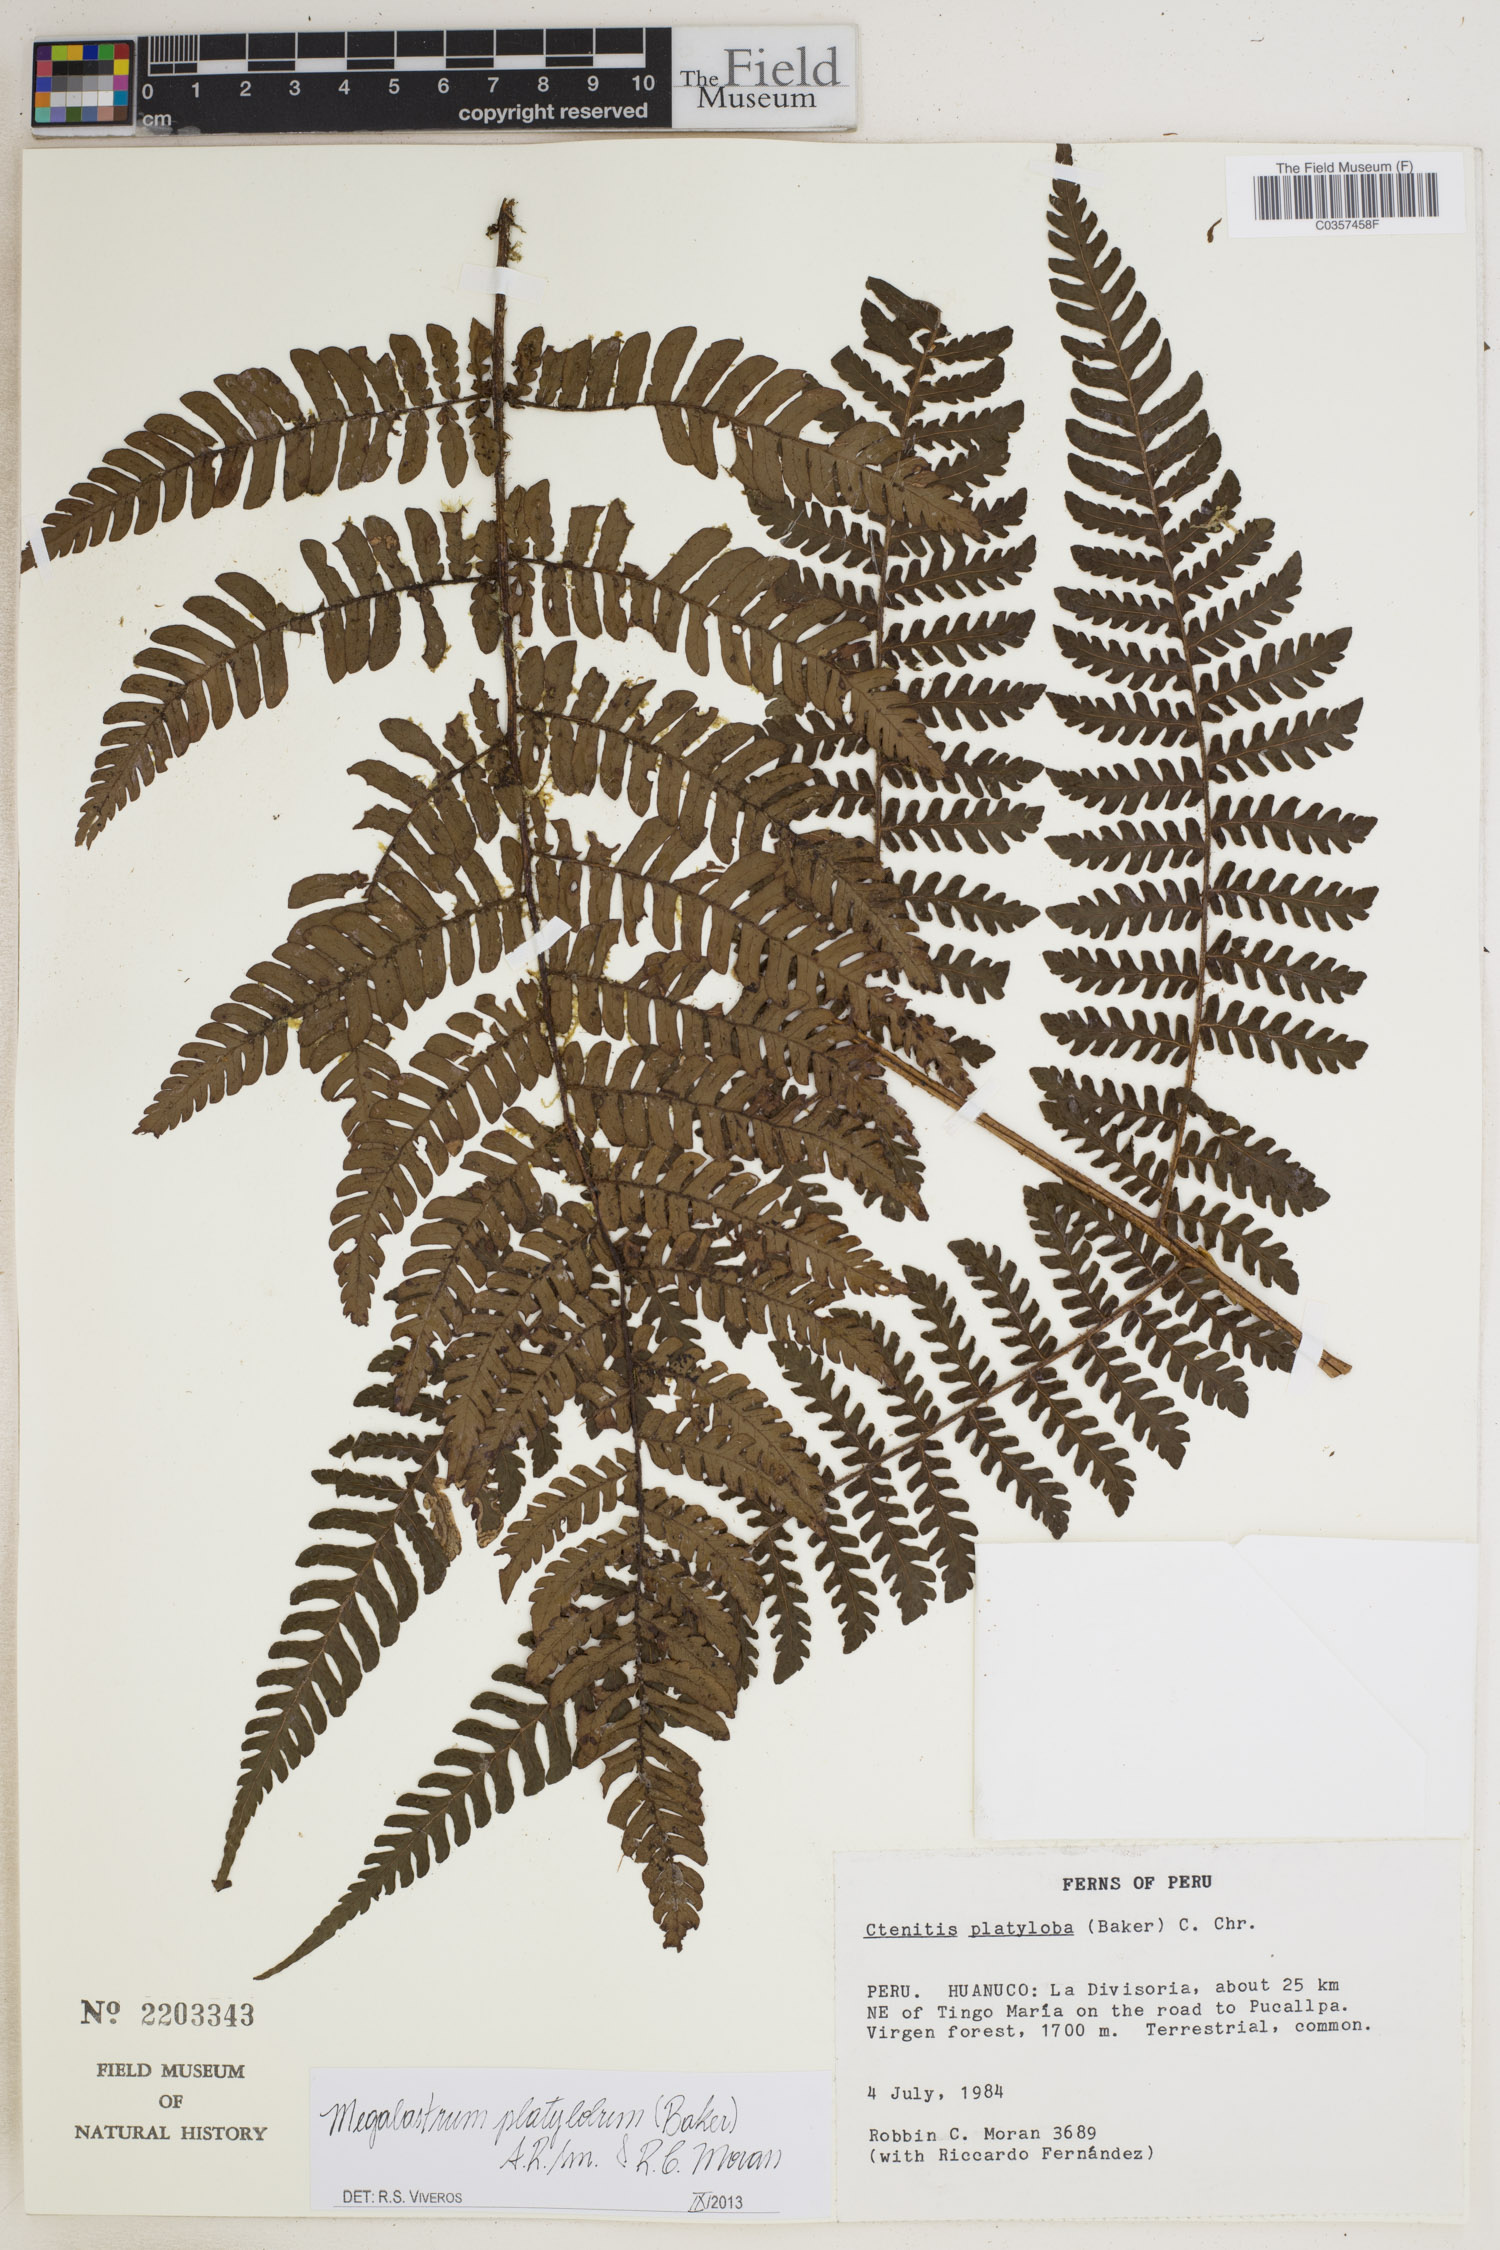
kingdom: Plantae
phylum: Tracheophyta
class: Polypodiopsida
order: Polypodiales
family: Dryopteridaceae
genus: Megalastrum
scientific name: Megalastrum platylobum
